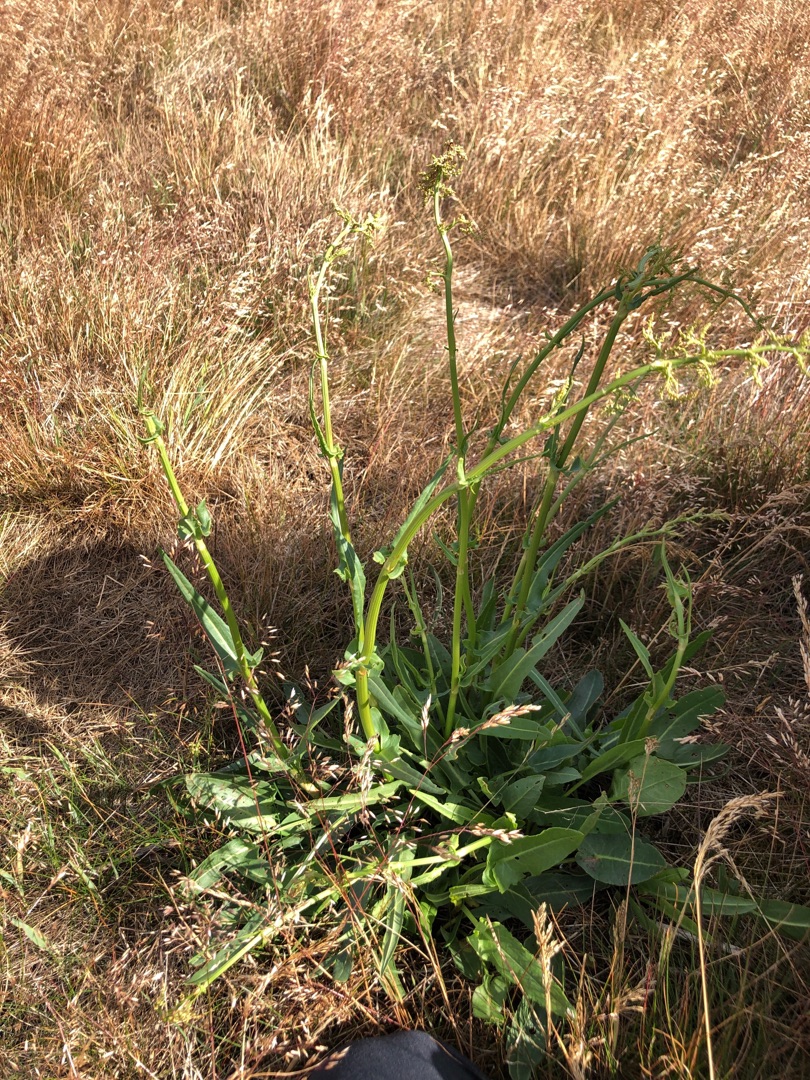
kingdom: Plantae
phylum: Tracheophyta
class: Magnoliopsida
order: Caryophyllales
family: Polygonaceae
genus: Rumex
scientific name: Rumex thyrsiflorus
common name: Dusk-syre
